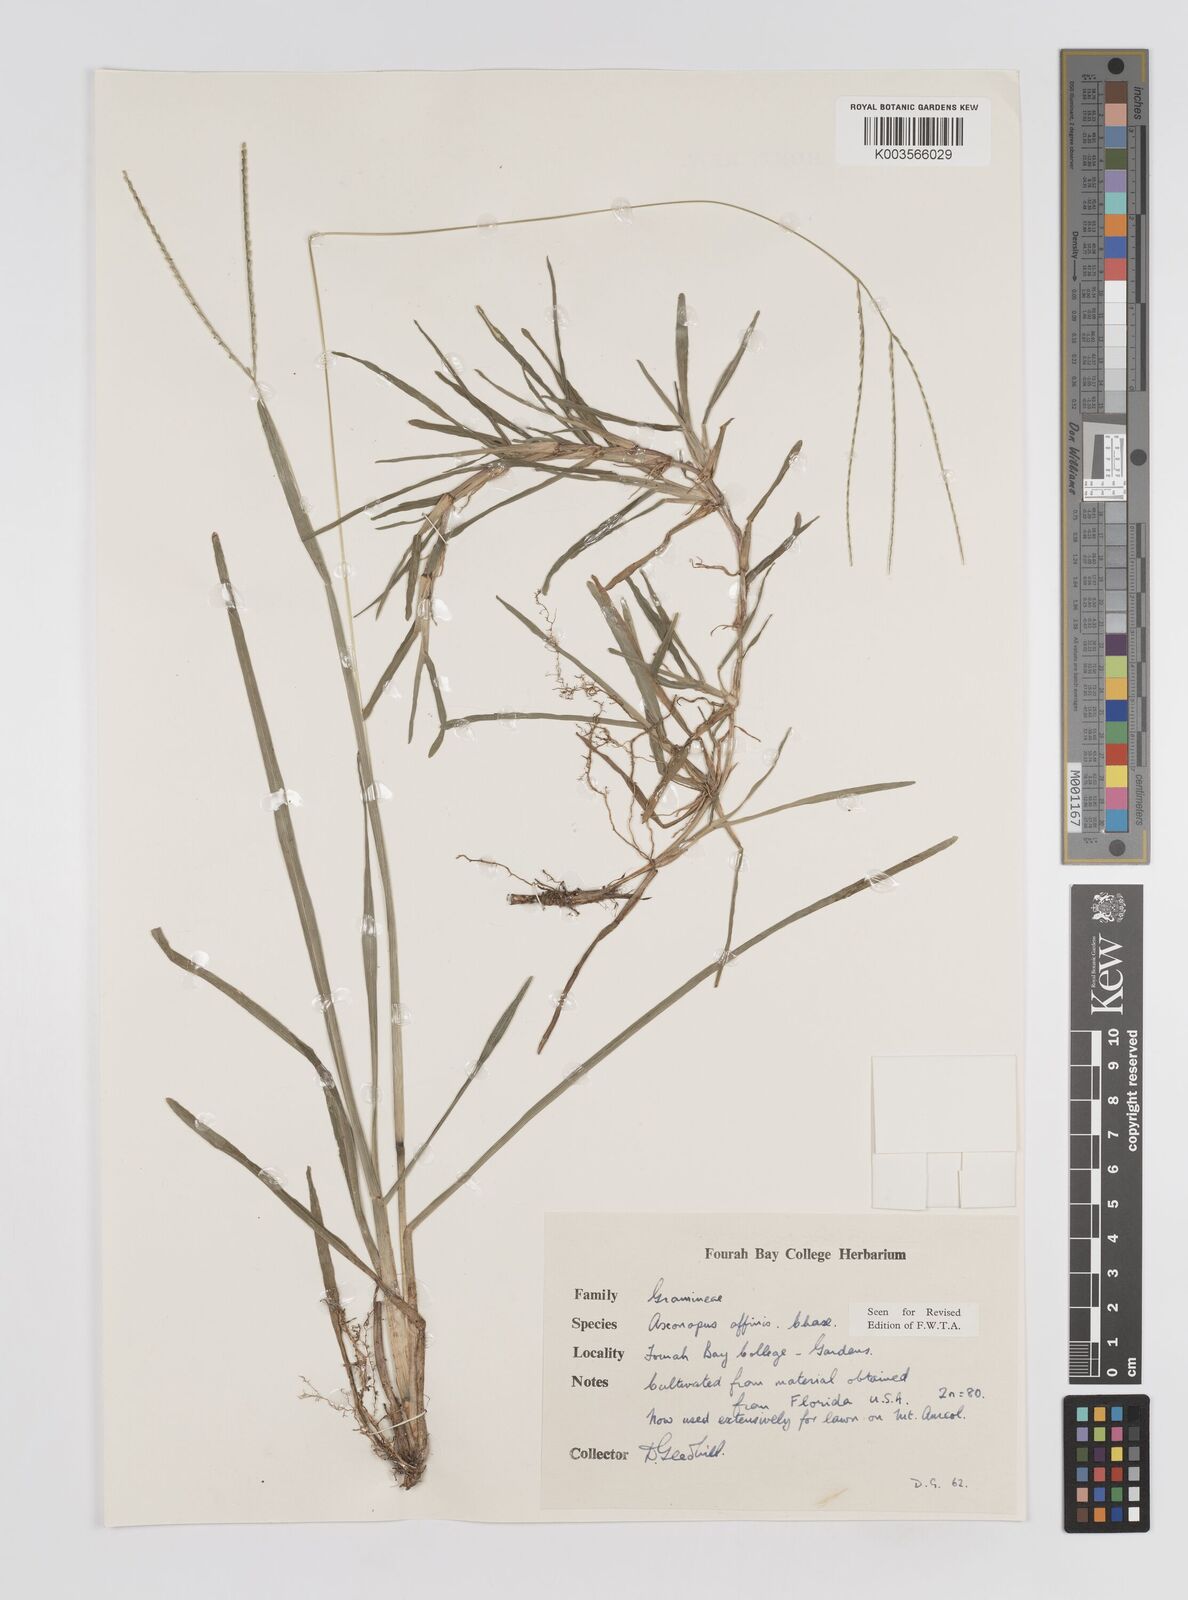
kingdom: Plantae
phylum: Tracheophyta
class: Liliopsida
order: Poales
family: Poaceae
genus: Axonopus
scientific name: Axonopus fissifolius
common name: Common carpetgrass
